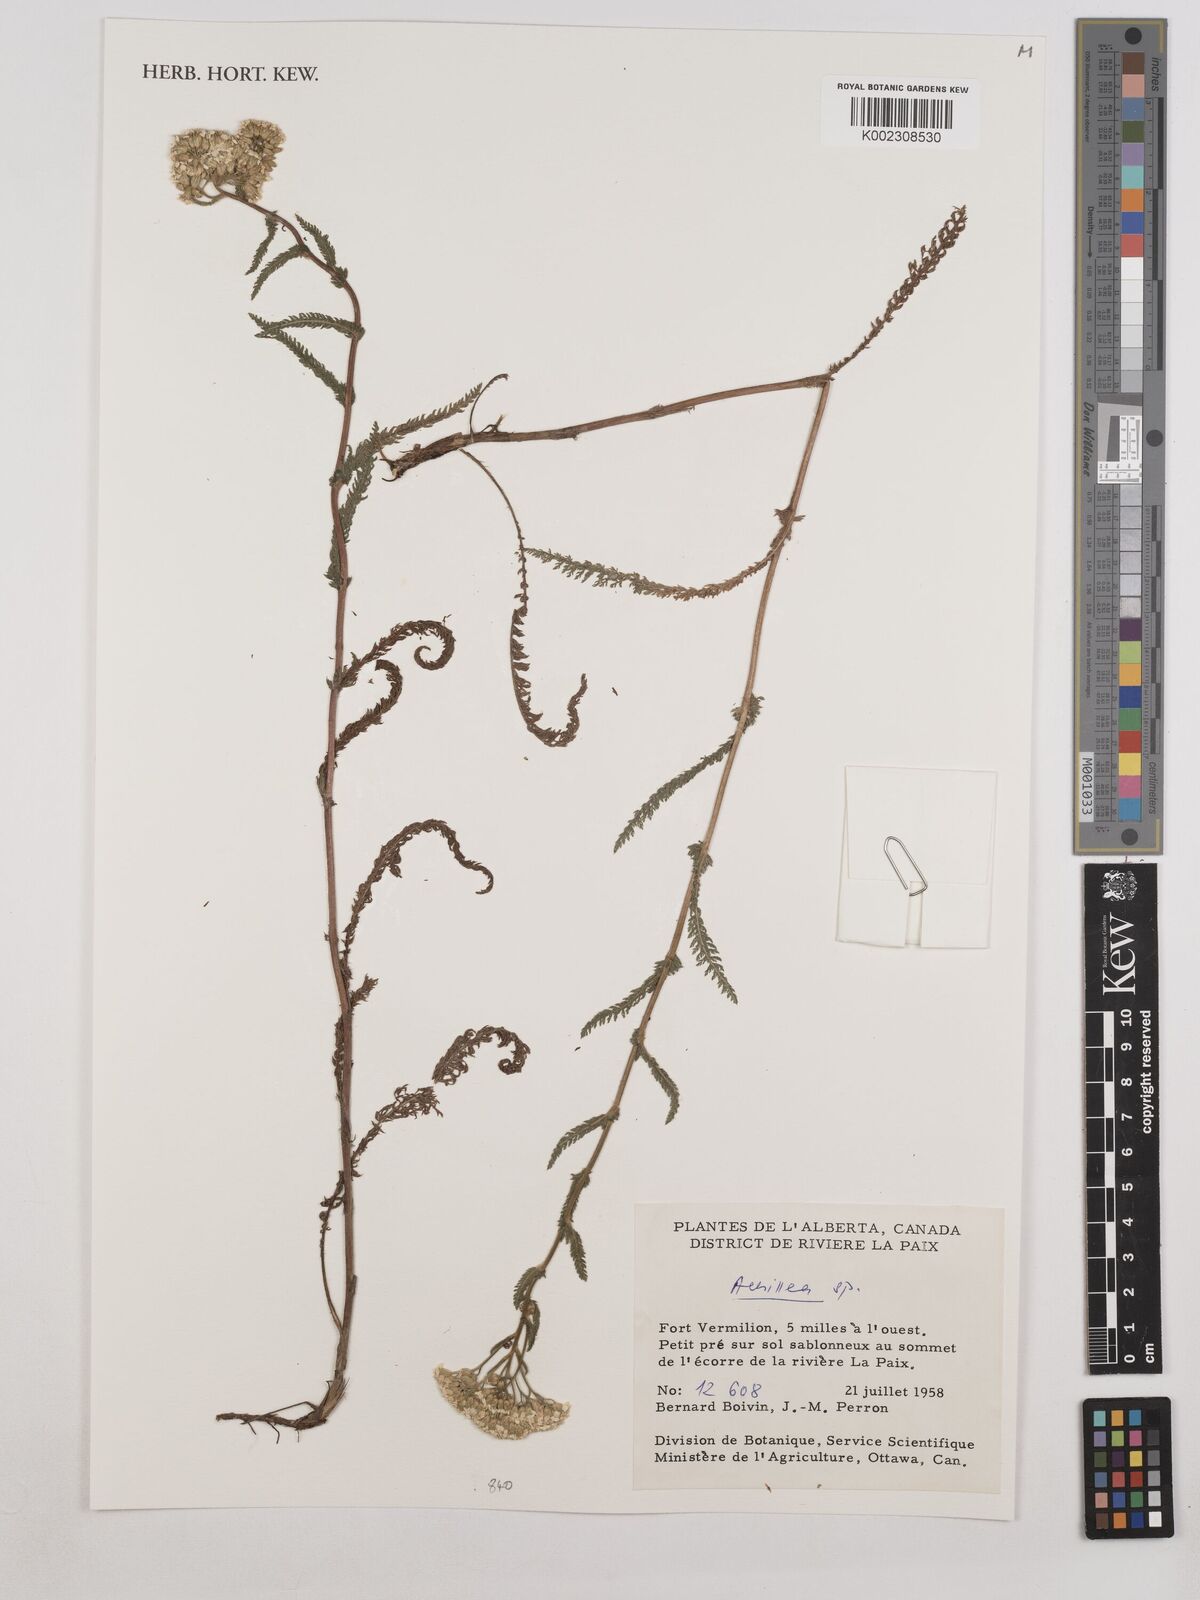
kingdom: Plantae
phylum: Tracheophyta
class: Magnoliopsida
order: Asterales
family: Asteraceae
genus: Achillea
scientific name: Achillea
